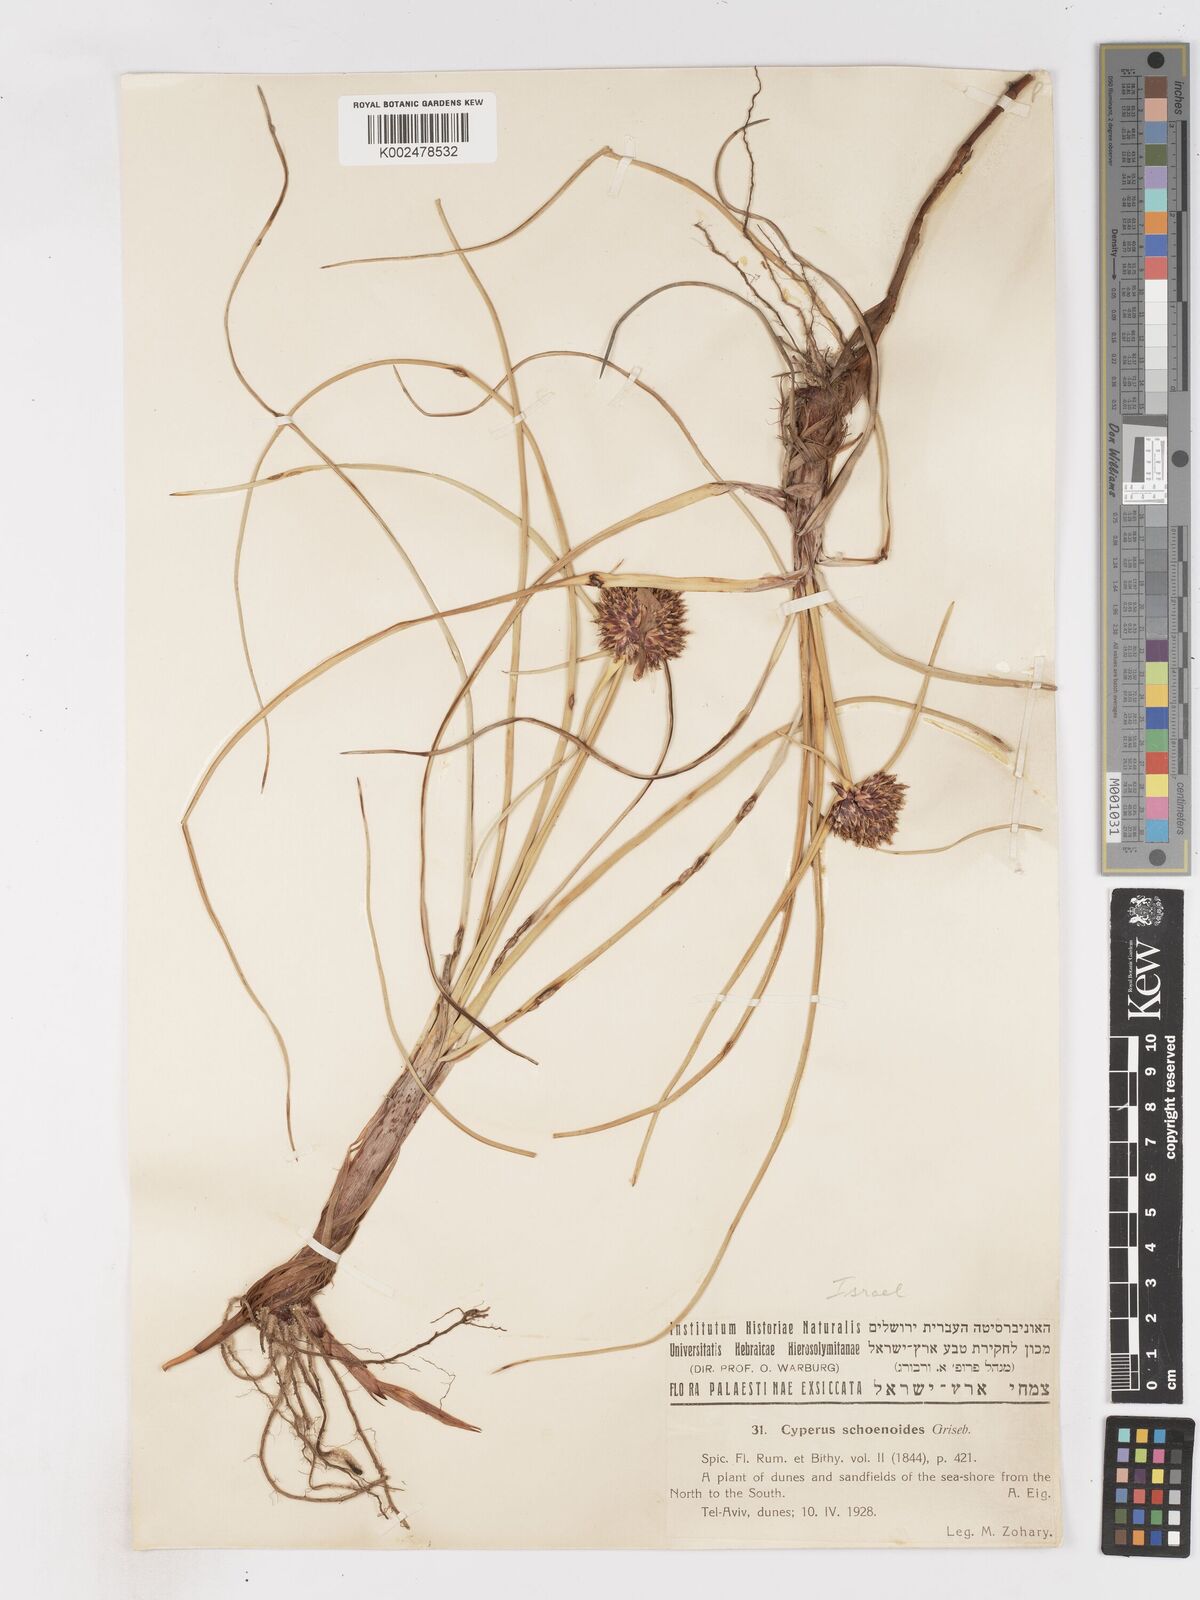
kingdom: Plantae
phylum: Tracheophyta
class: Liliopsida
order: Poales
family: Cyperaceae
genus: Cyperus
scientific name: Cyperus capitatus
